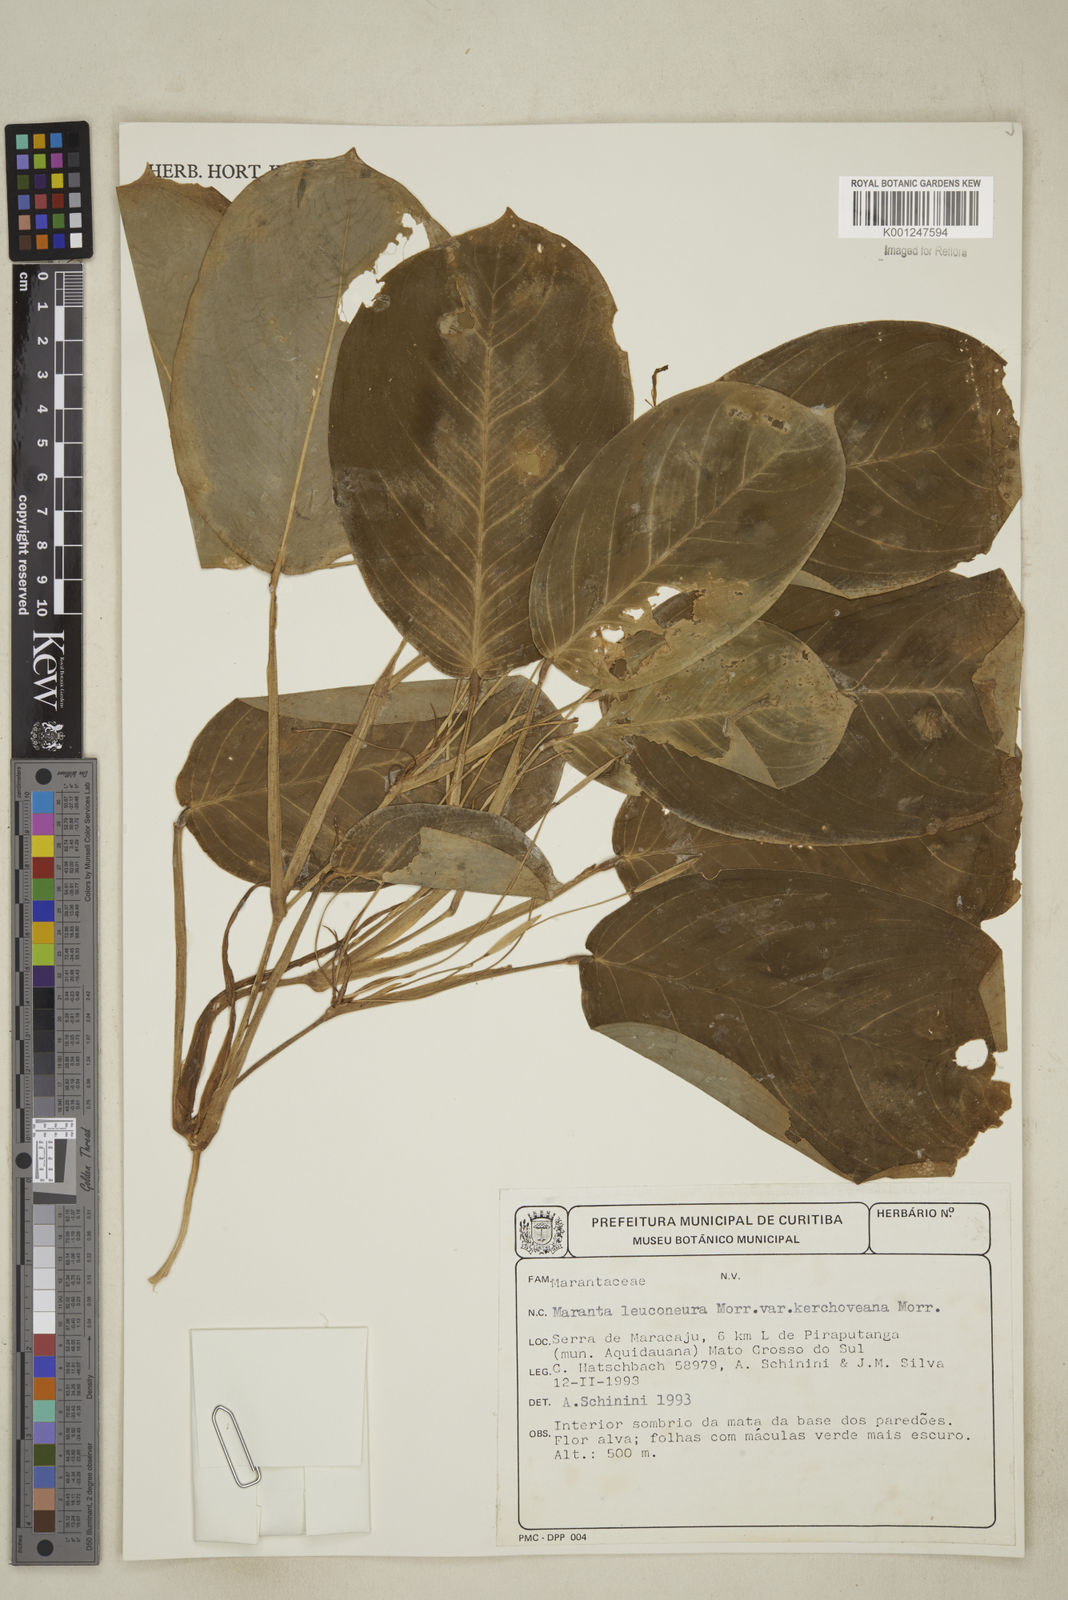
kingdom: Plantae
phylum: Tracheophyta
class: Liliopsida
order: Zingiberales
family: Marantaceae
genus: Maranta
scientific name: Maranta leuconeura
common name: Ten-commandments
